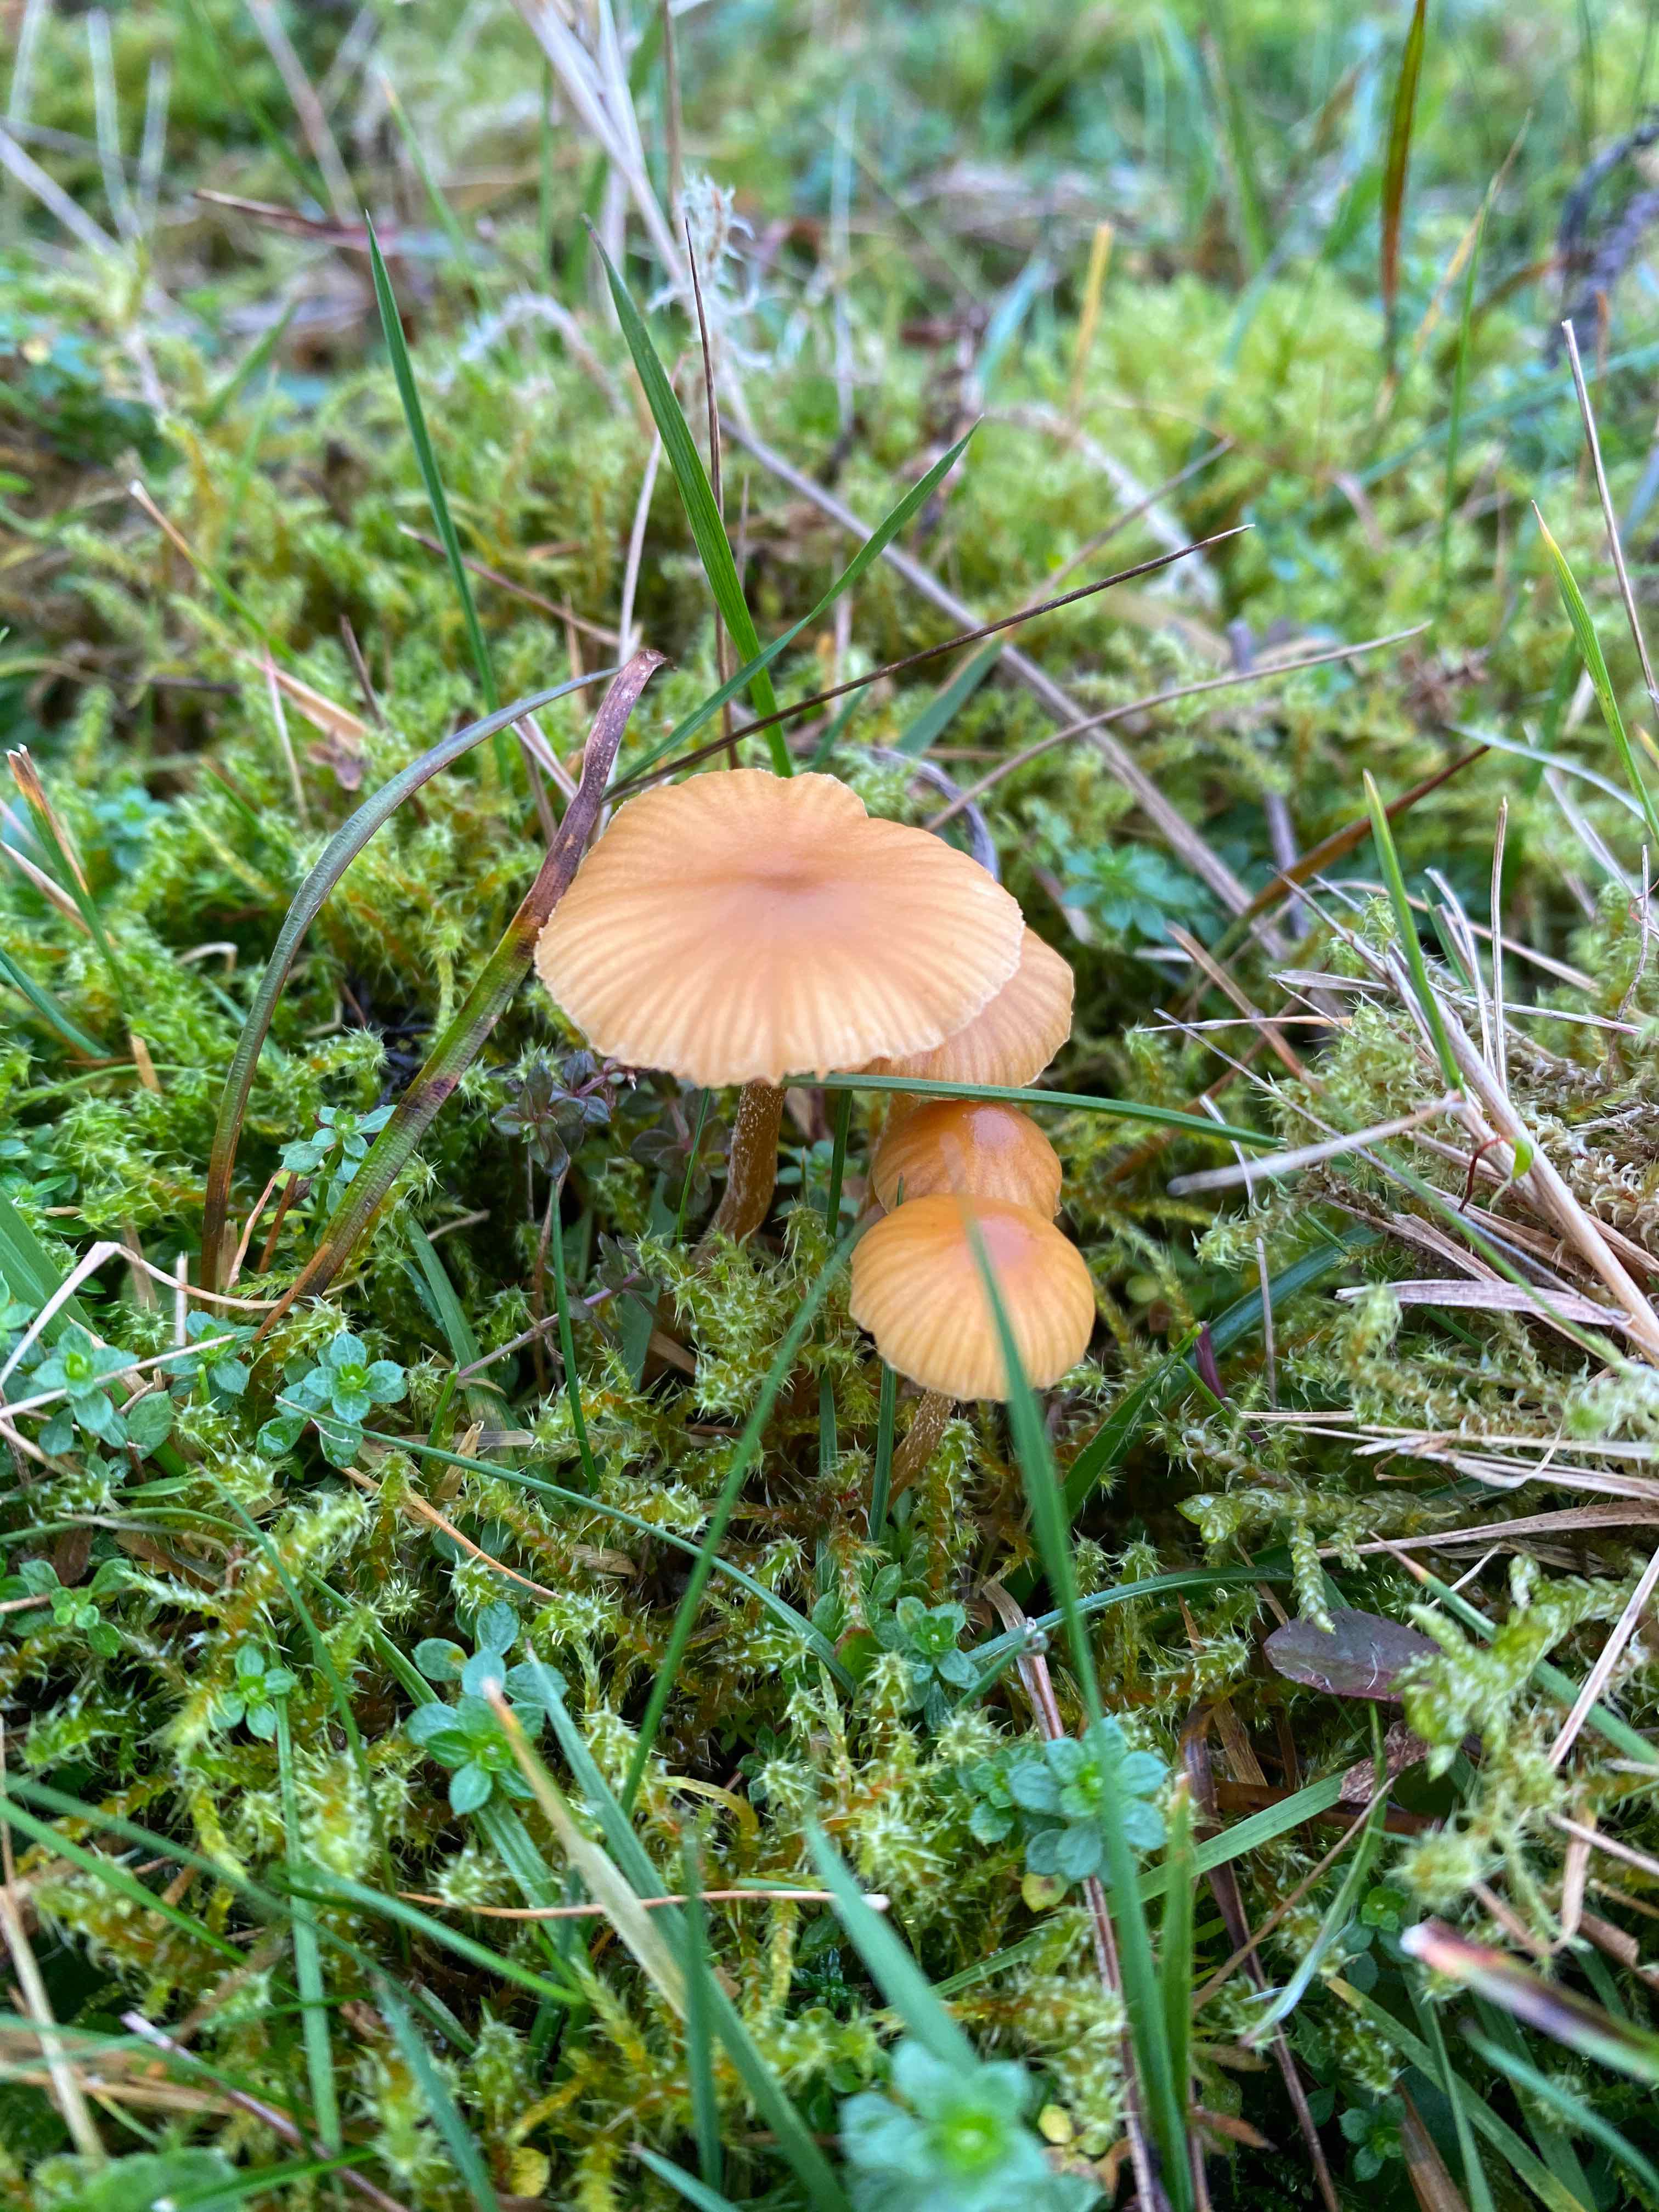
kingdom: Fungi
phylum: Basidiomycota
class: Agaricomycetes
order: Agaricales
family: Hymenogastraceae
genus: Galerina
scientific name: Galerina
